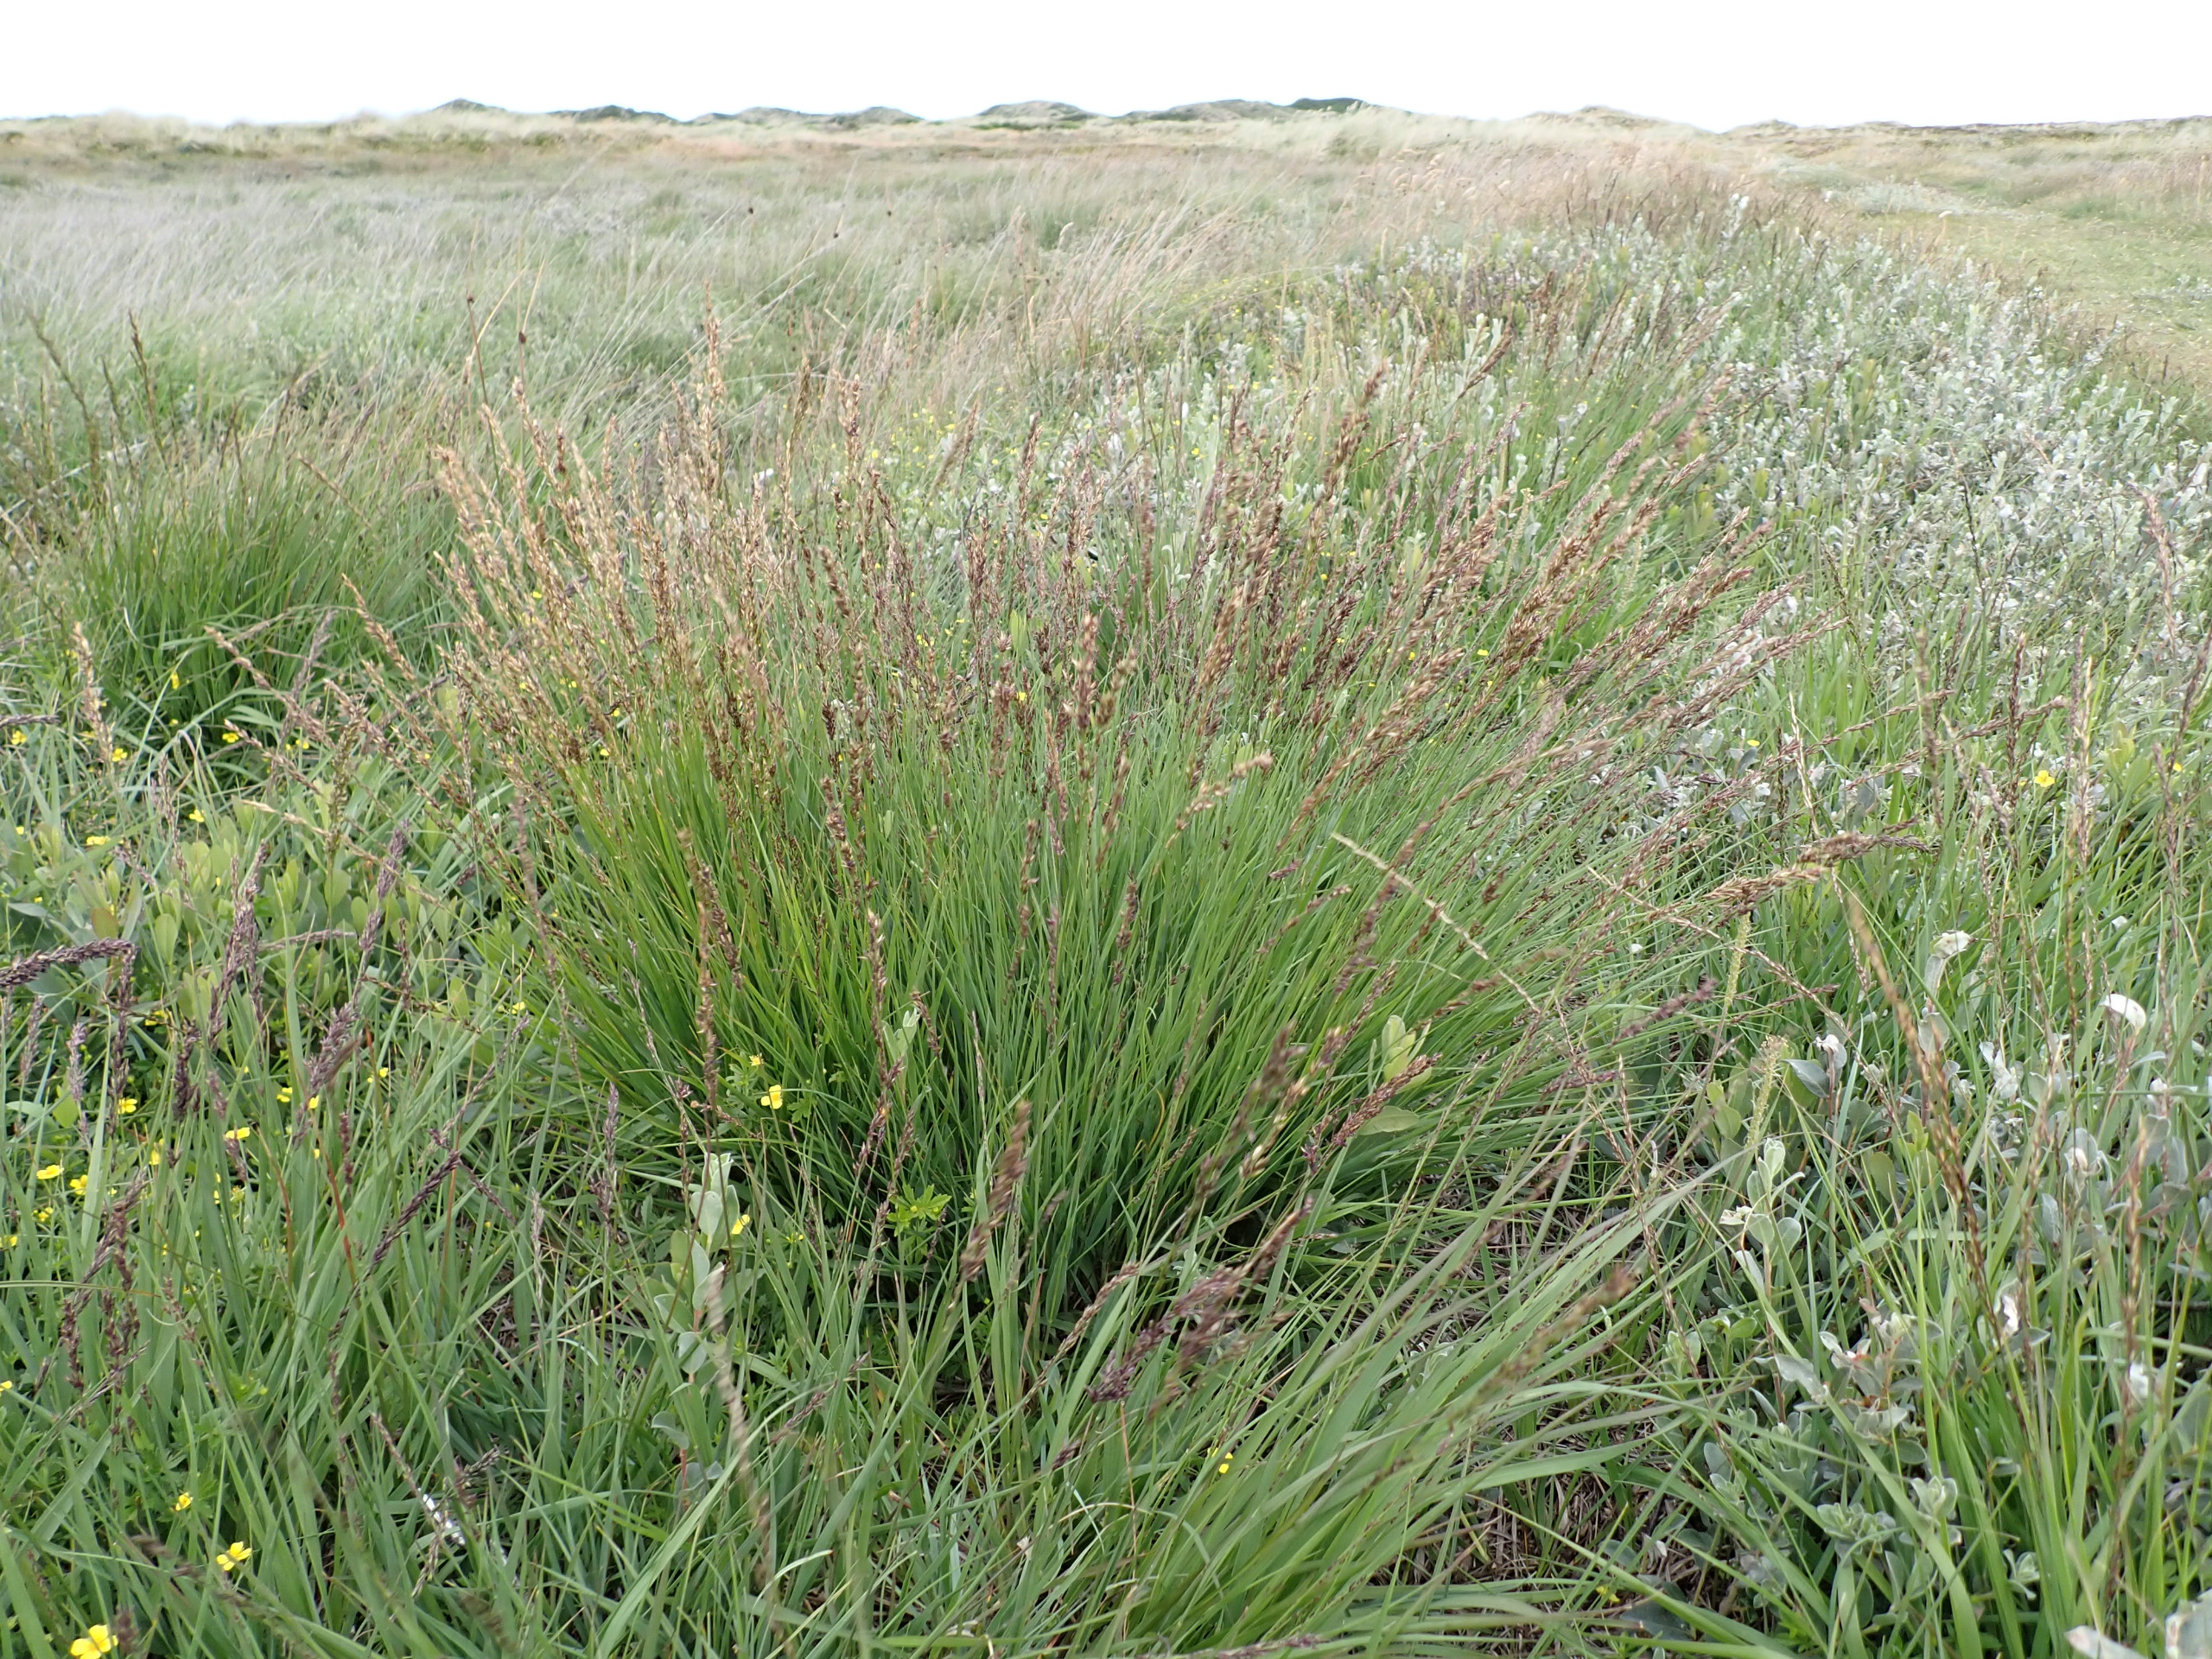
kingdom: Plantae
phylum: Tracheophyta
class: Liliopsida
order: Poales
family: Poaceae
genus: Molinia
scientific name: Molinia caerulea
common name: Blåtop
